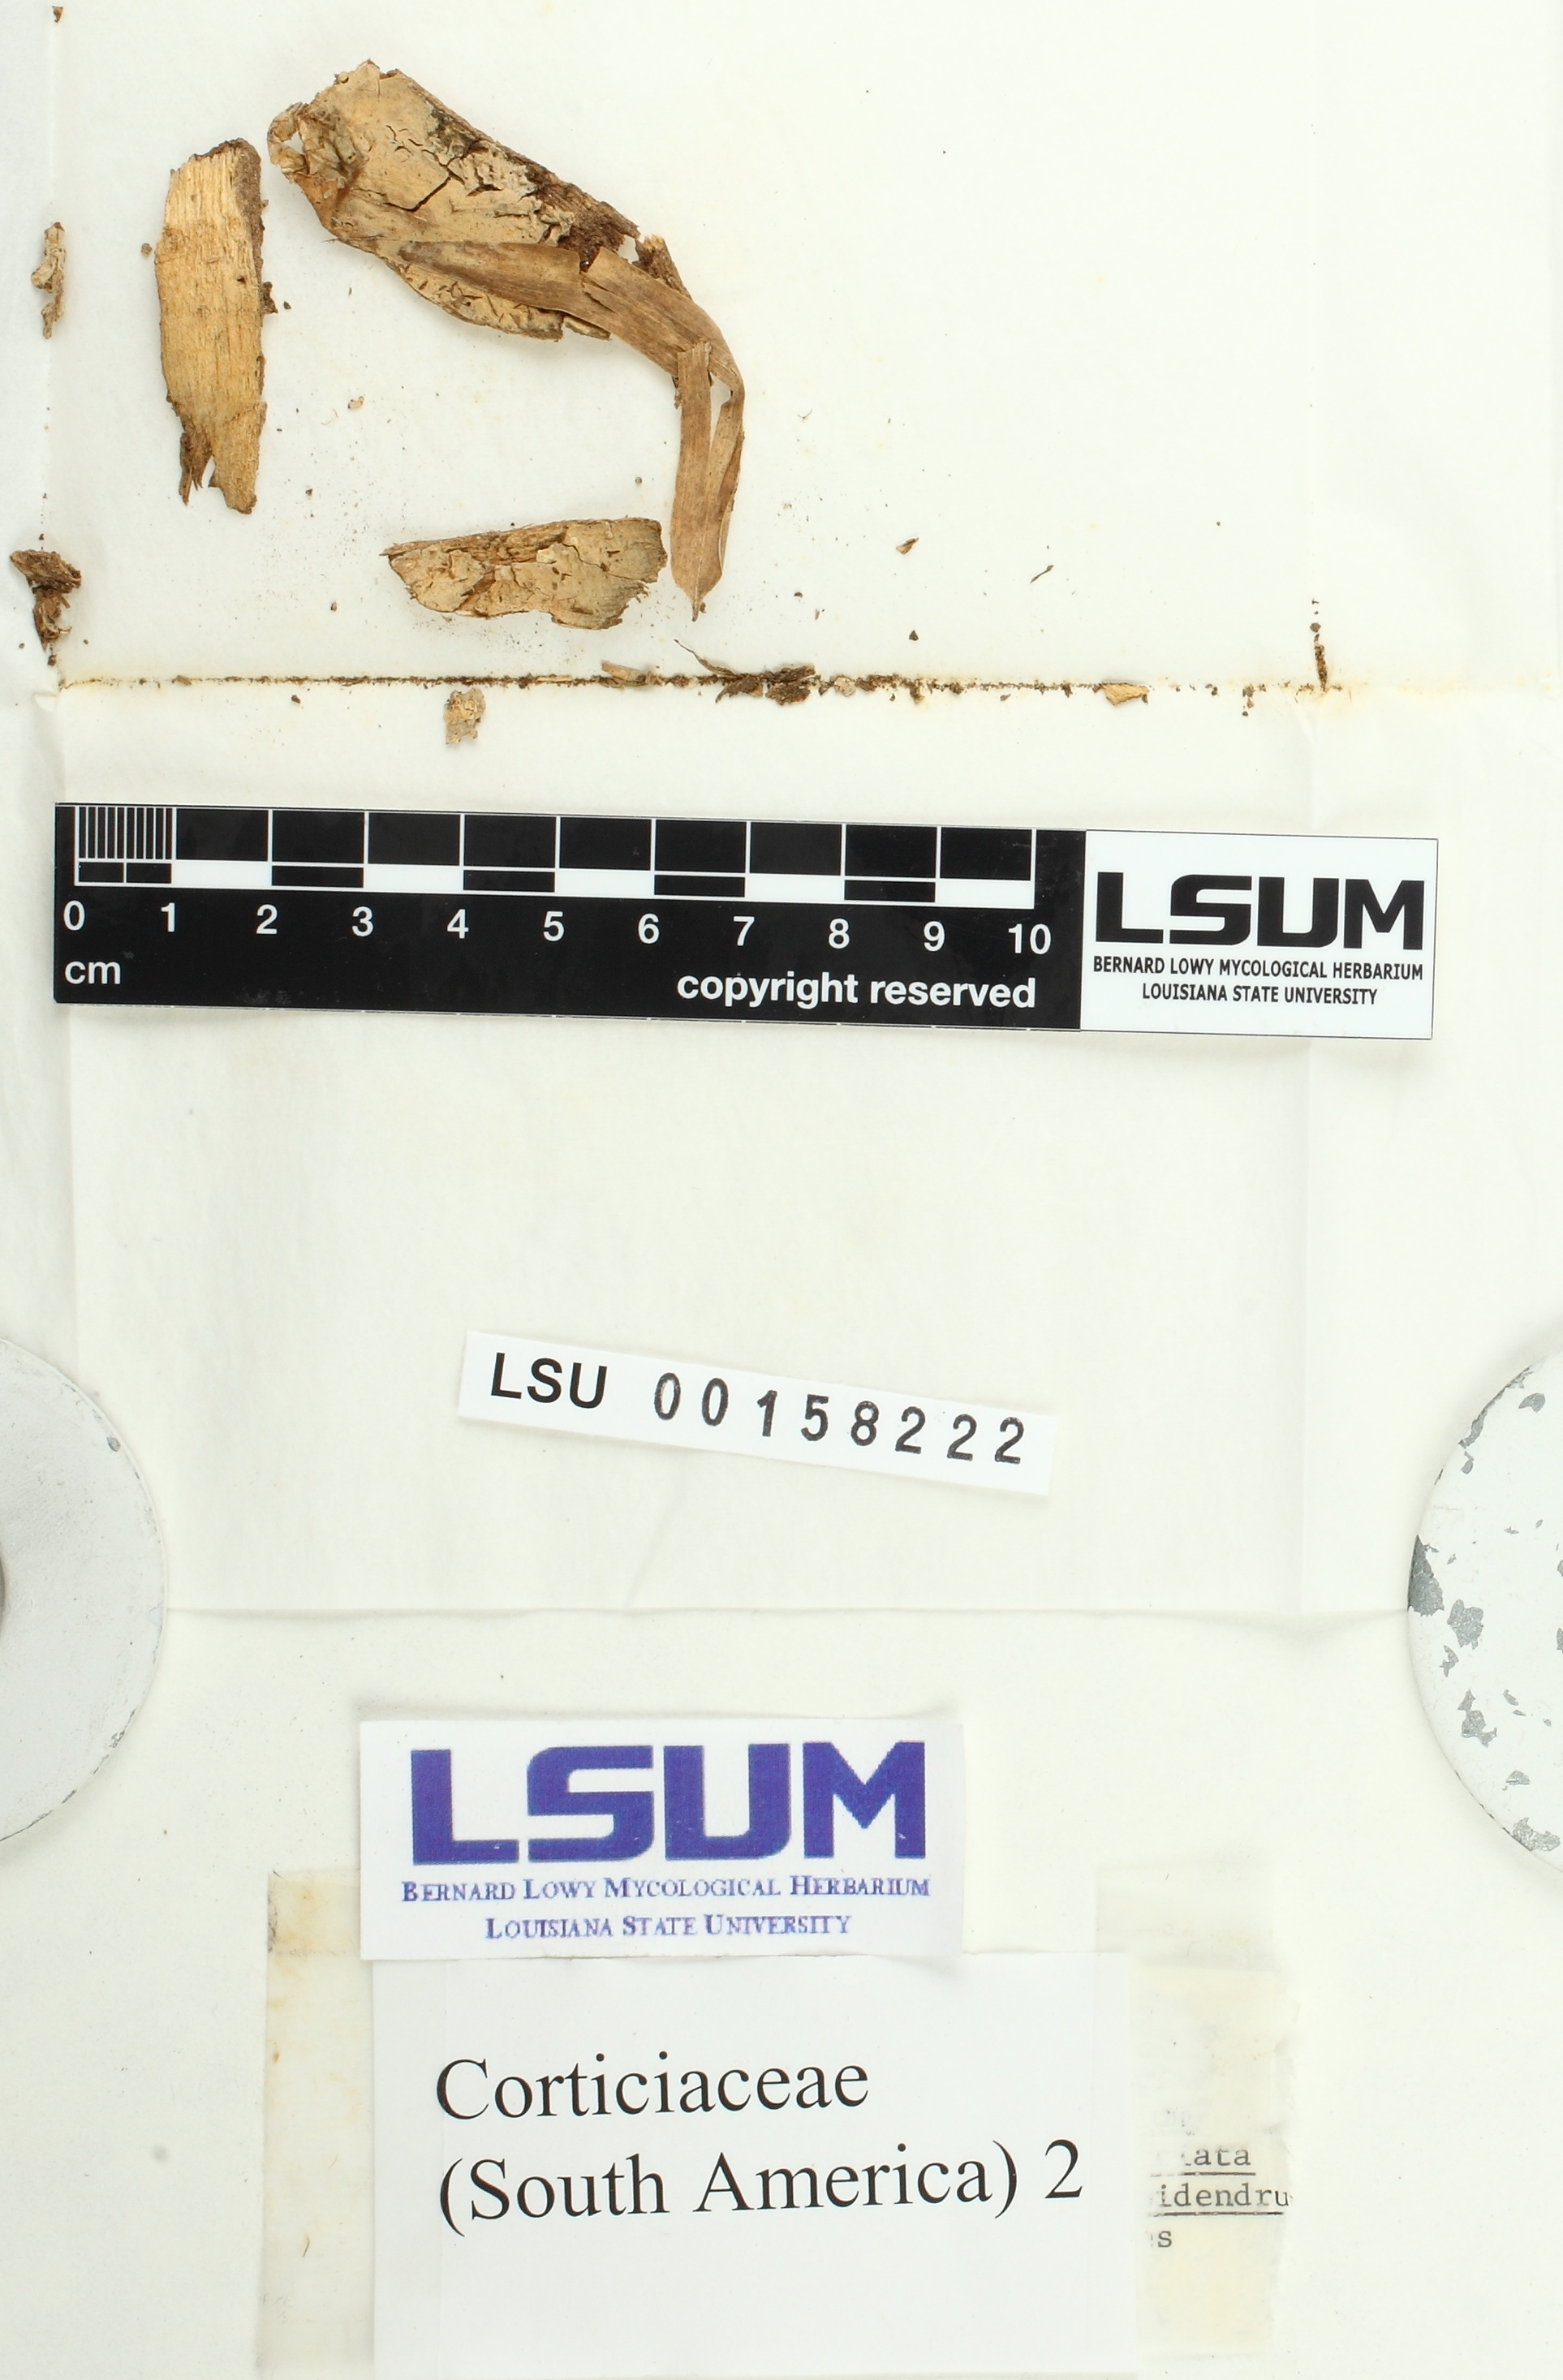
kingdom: Fungi
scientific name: Fungi
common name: Fungi
